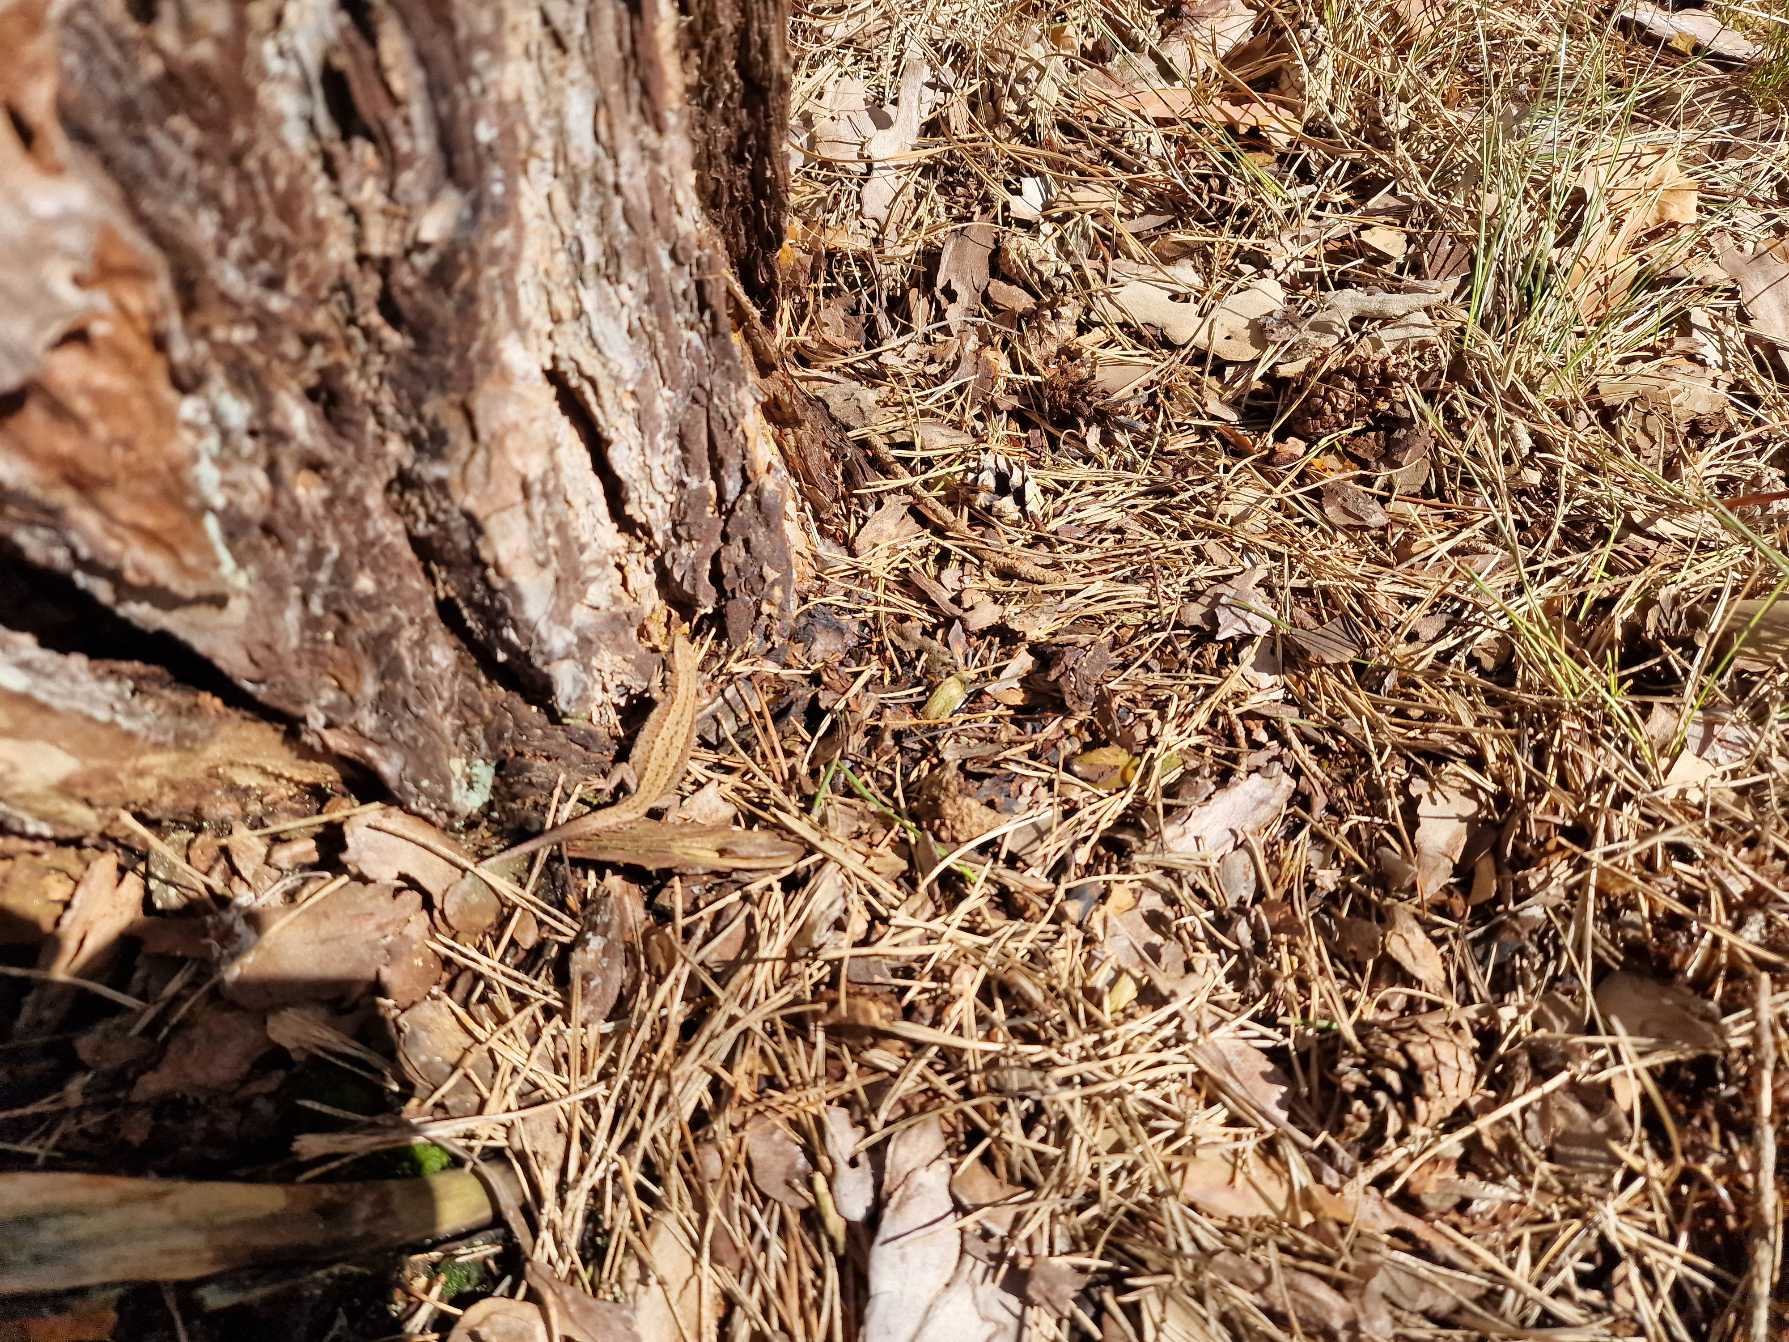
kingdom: Animalia
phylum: Chordata
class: Squamata
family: Lacertidae
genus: Zootoca
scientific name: Zootoca vivipara
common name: Skovfirben
